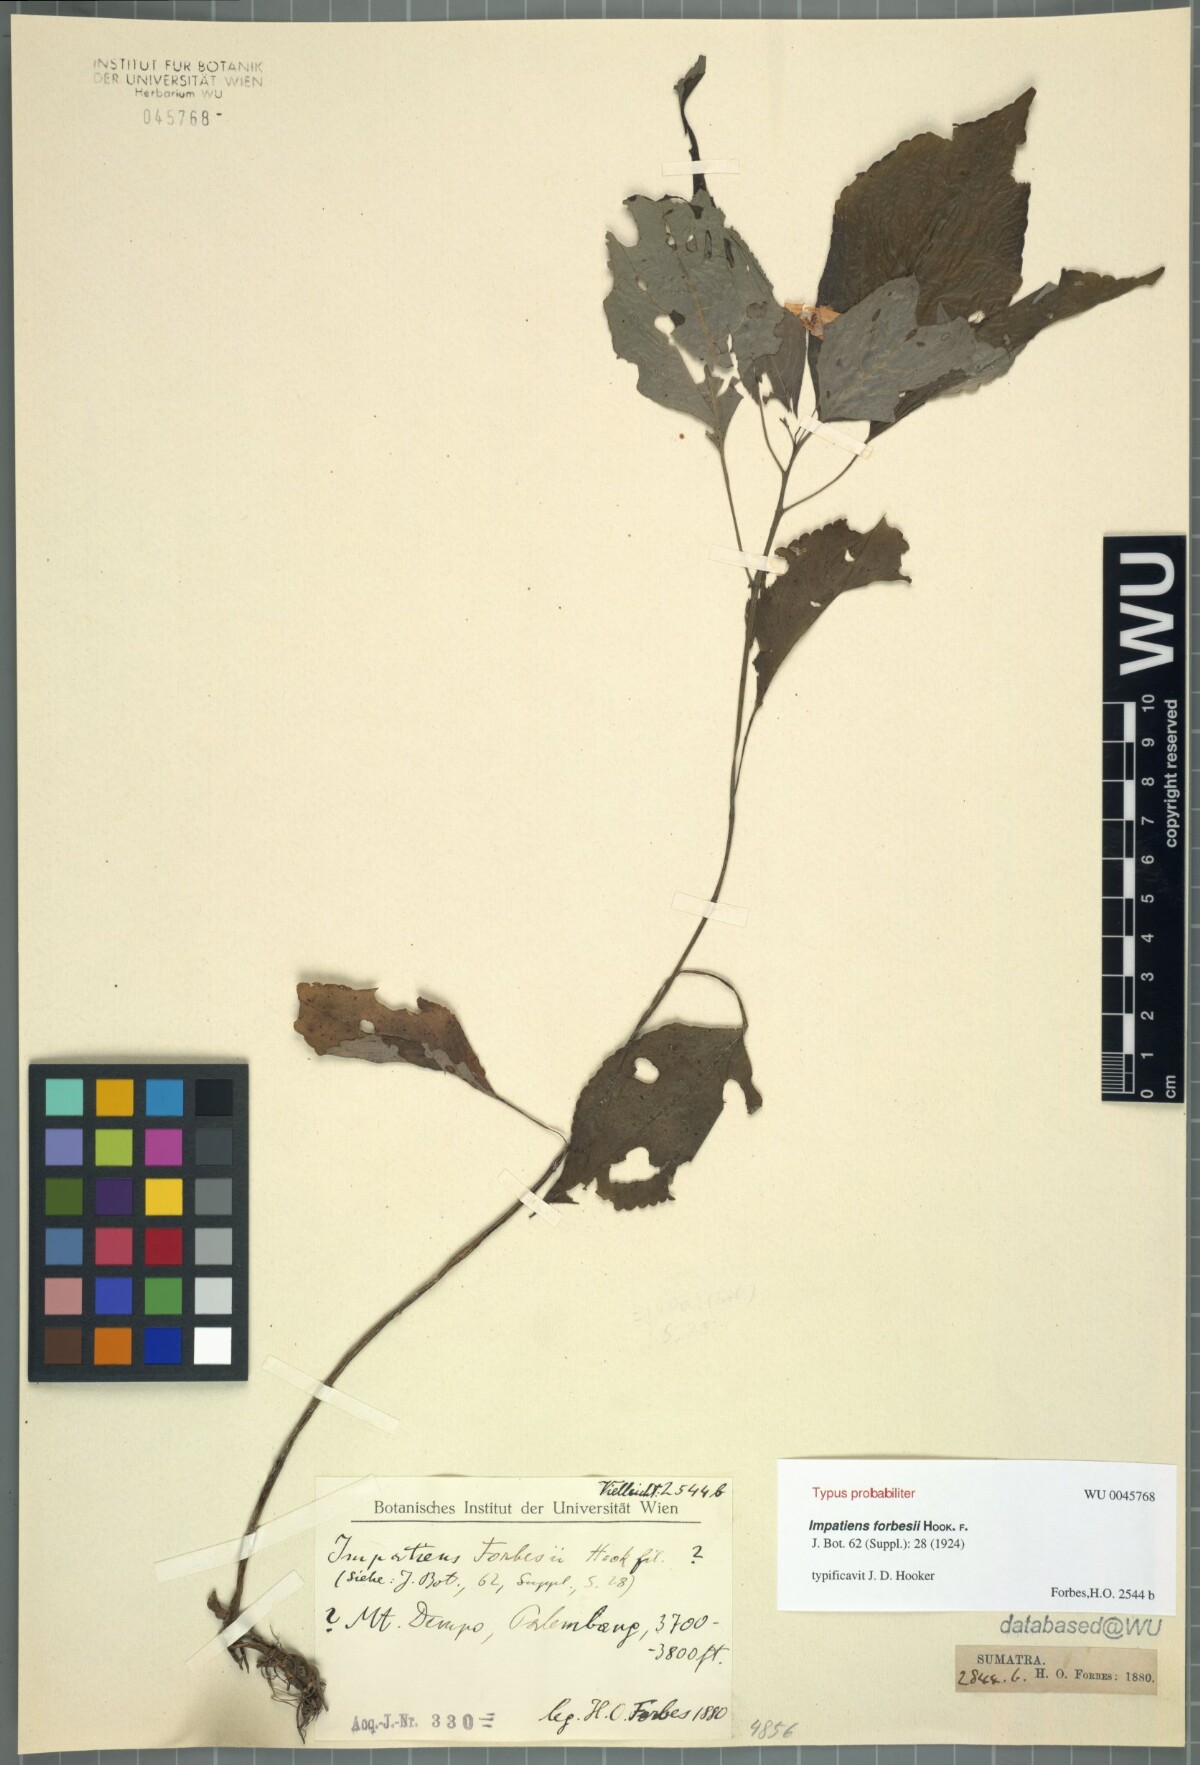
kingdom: Plantae
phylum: Tracheophyta
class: Magnoliopsida
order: Ericales
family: Balsaminaceae
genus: Impatiens
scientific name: Impatiens forbesii
